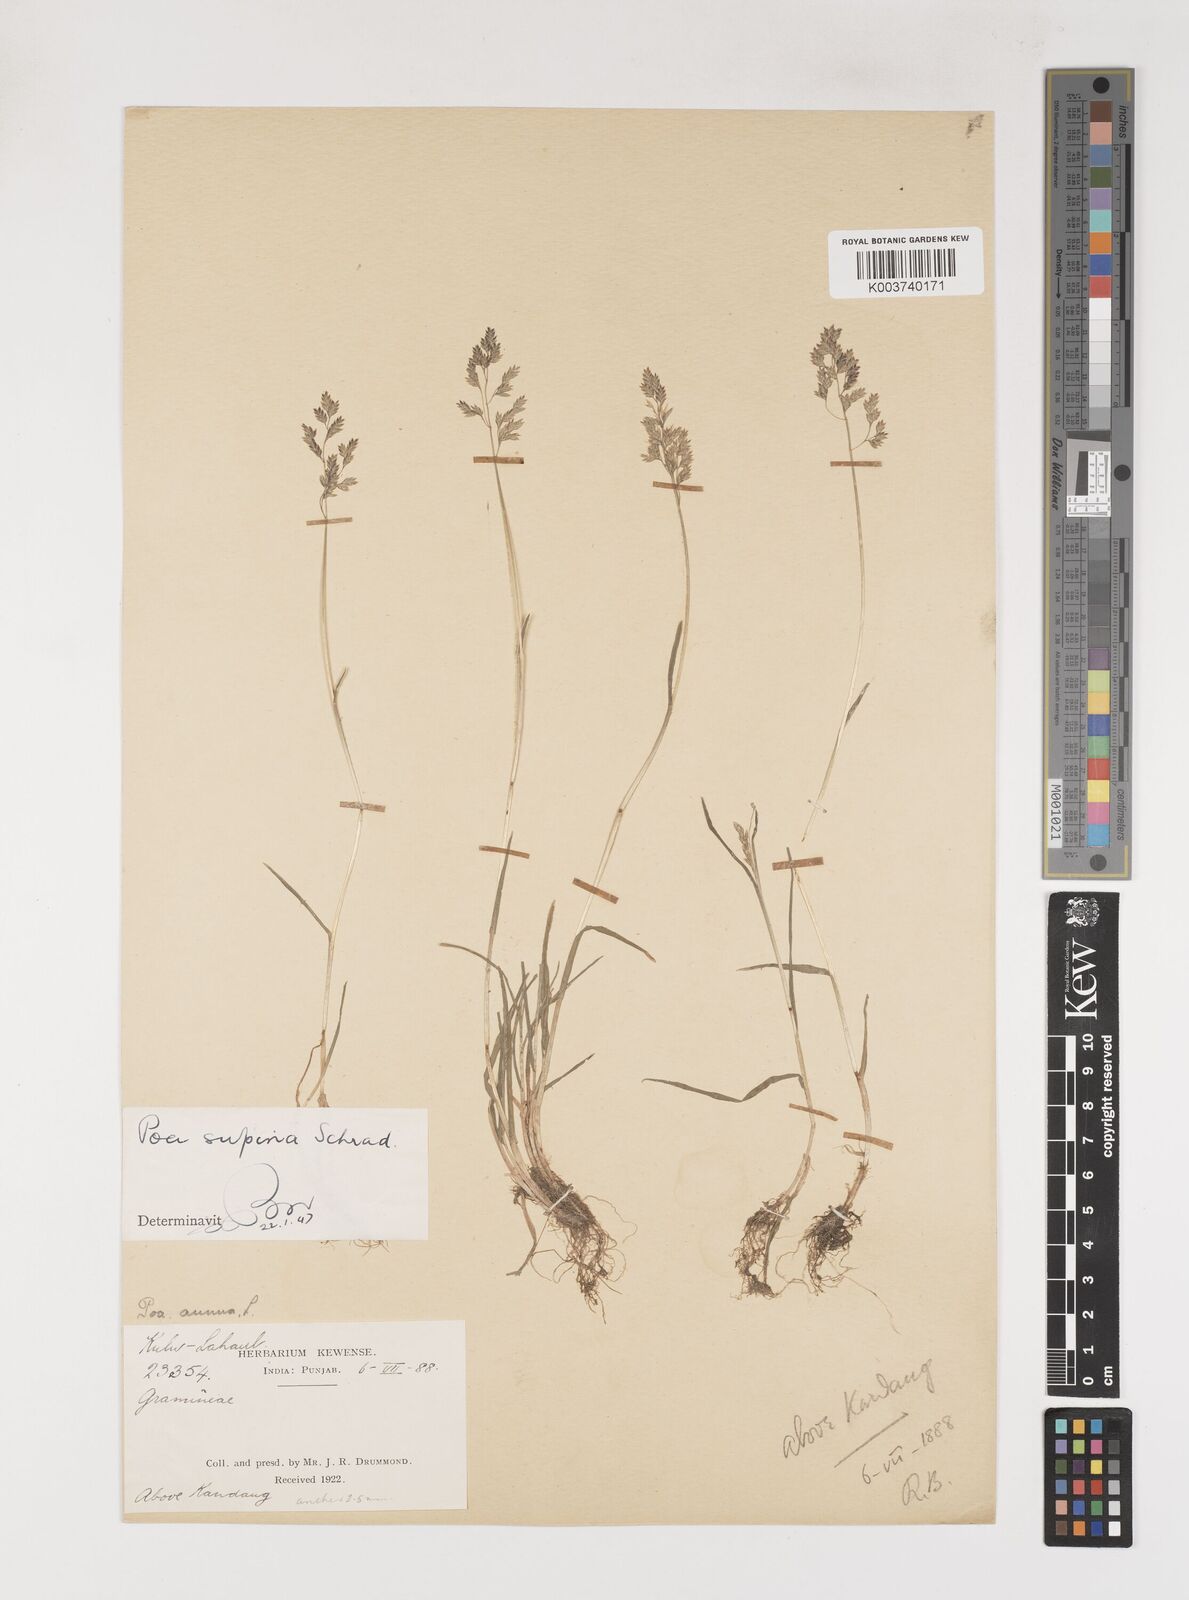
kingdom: Plantae
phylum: Tracheophyta
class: Liliopsida
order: Poales
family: Poaceae
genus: Poa
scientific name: Poa supina
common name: Supina bluegrass
